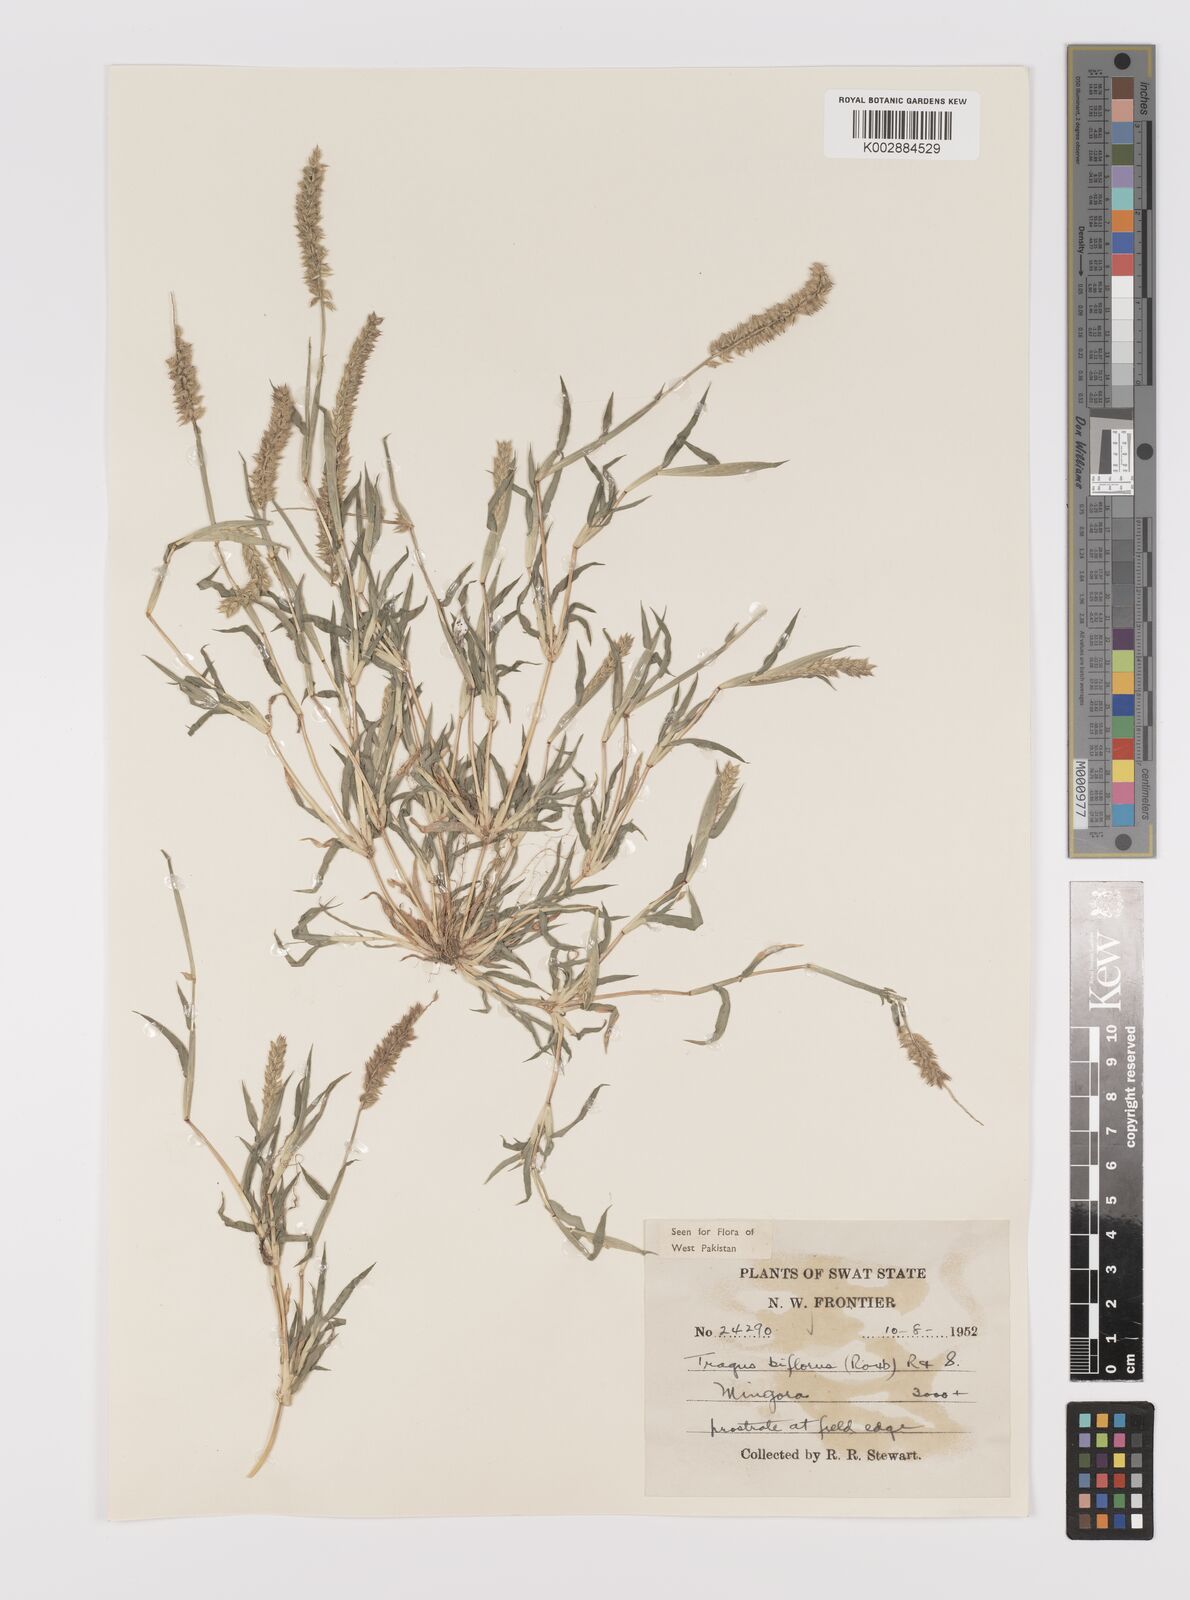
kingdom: Plantae
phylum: Tracheophyta
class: Liliopsida
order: Poales
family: Poaceae
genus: Tragus
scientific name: Tragus mongolorum
